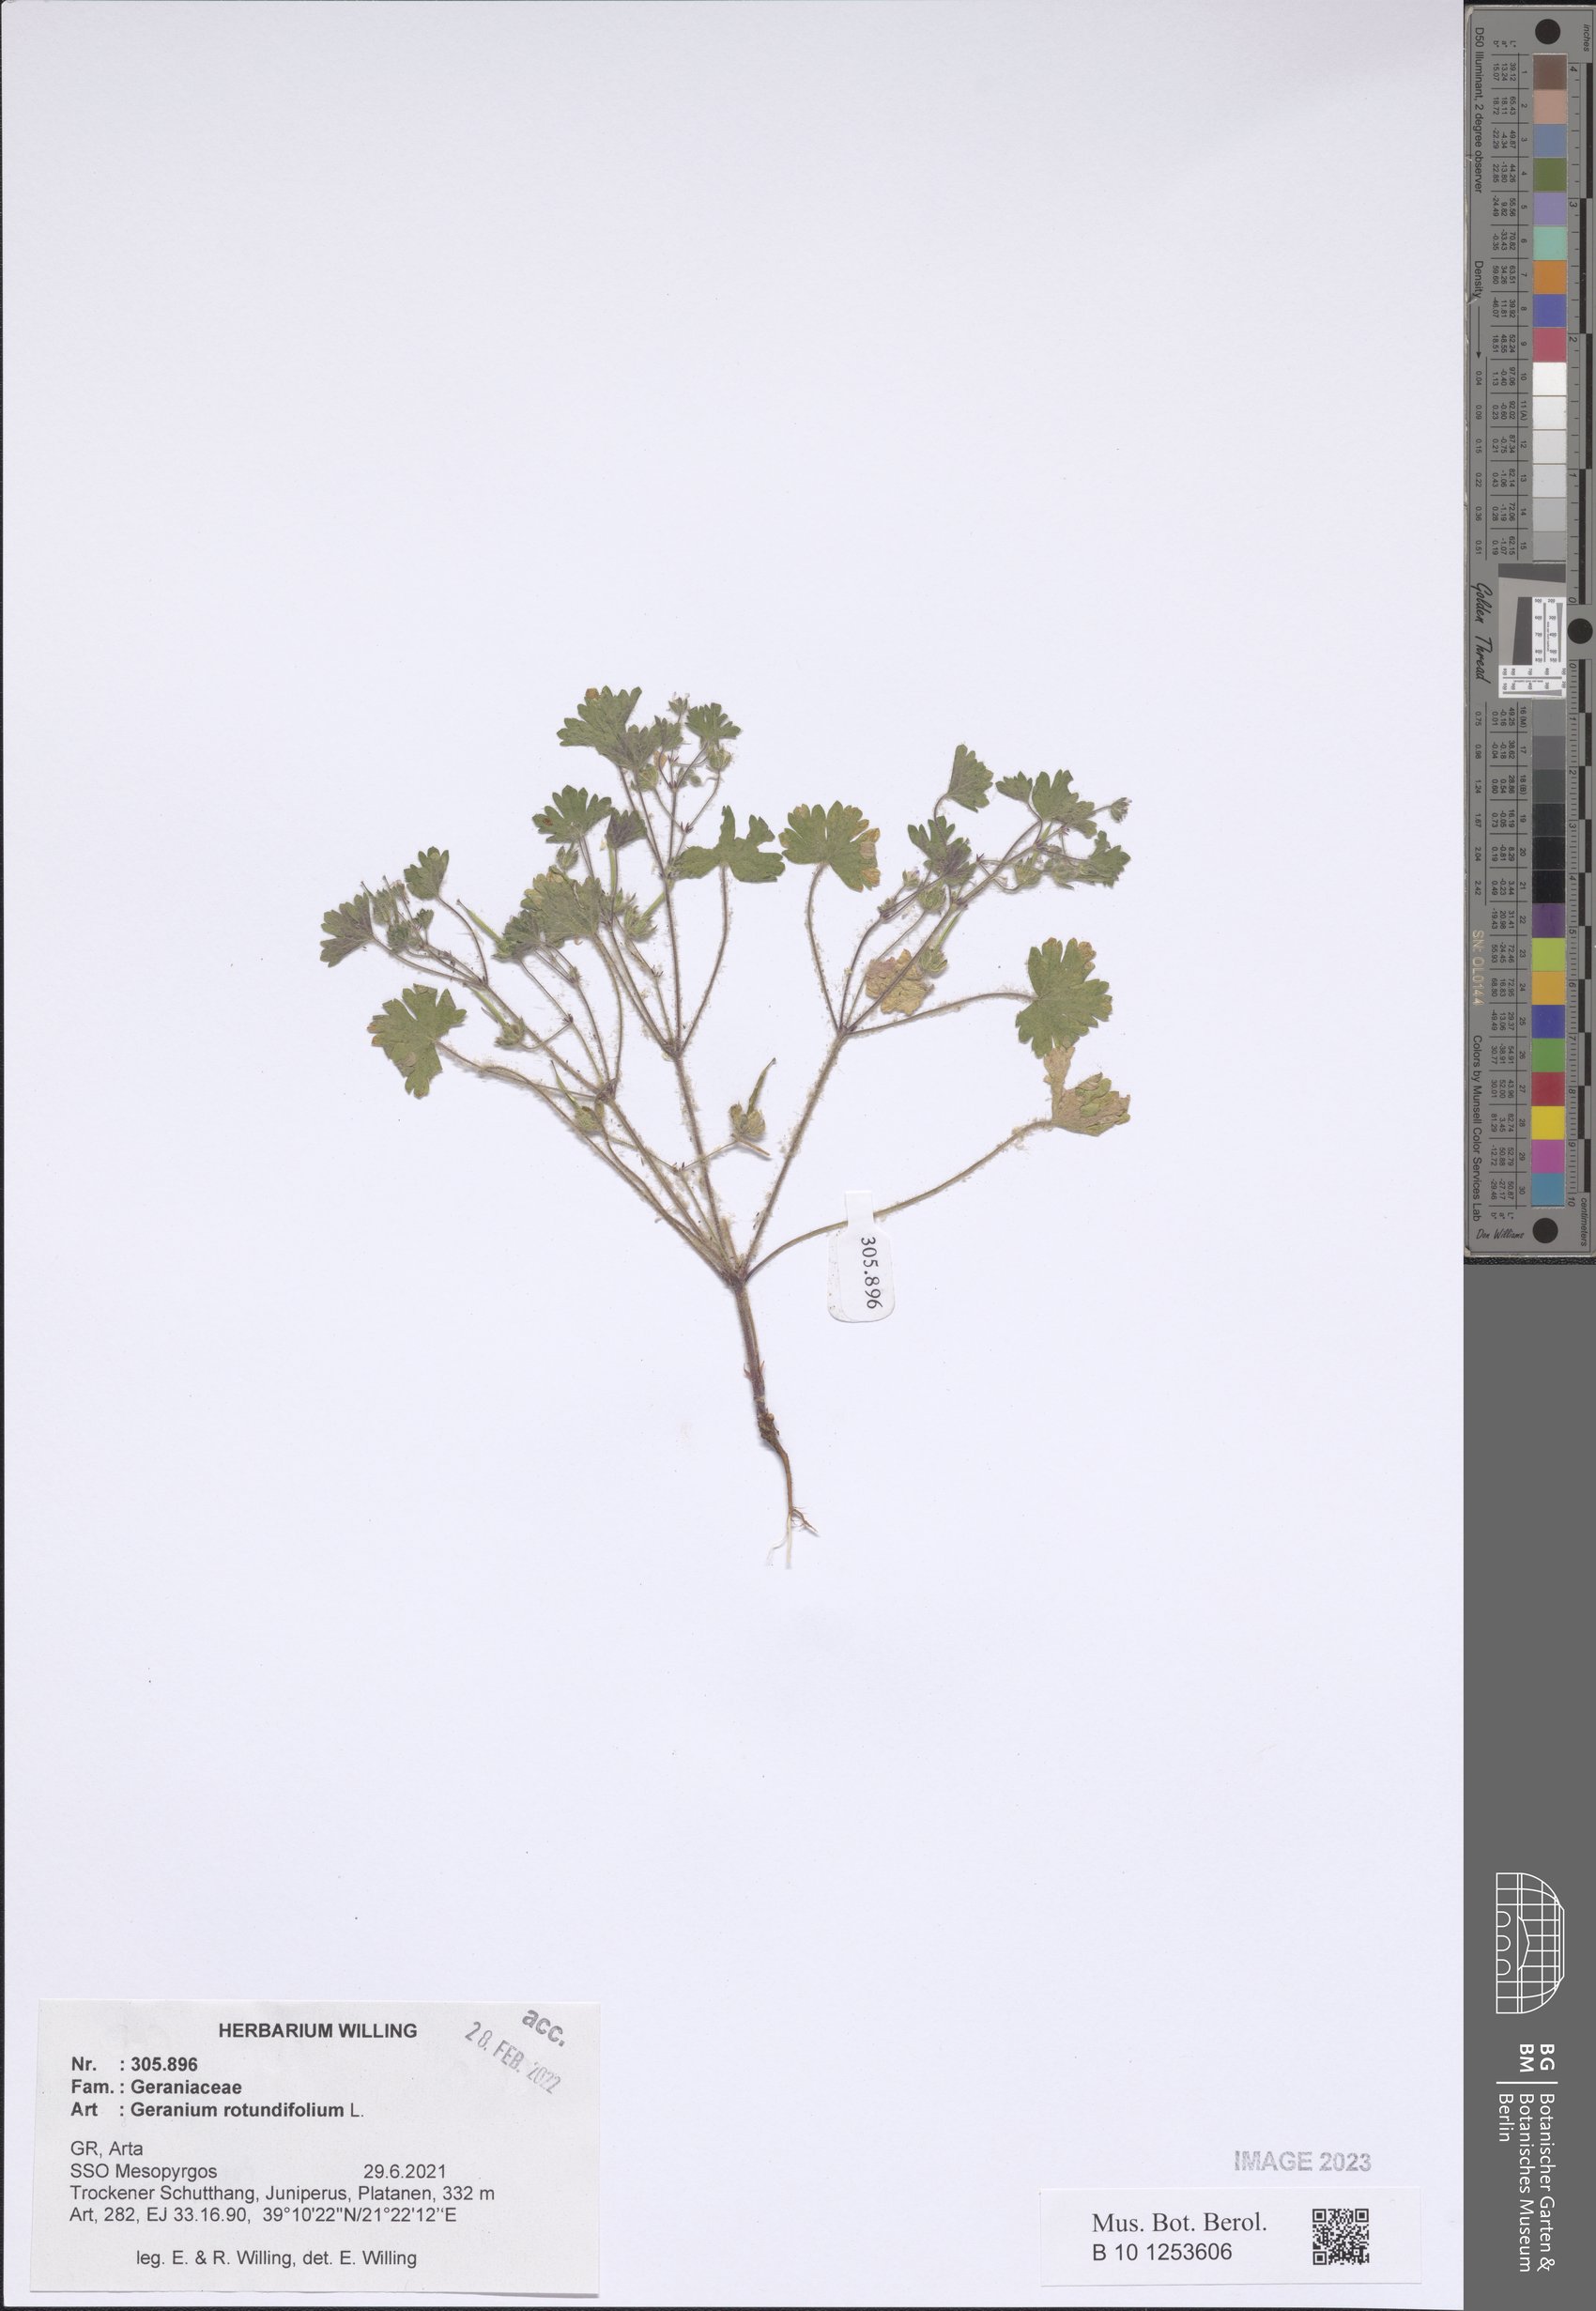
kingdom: Plantae
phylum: Tracheophyta
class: Magnoliopsida
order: Geraniales
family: Geraniaceae
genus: Geranium
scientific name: Geranium rotundifolium
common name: Round-leaved crane's-bill
